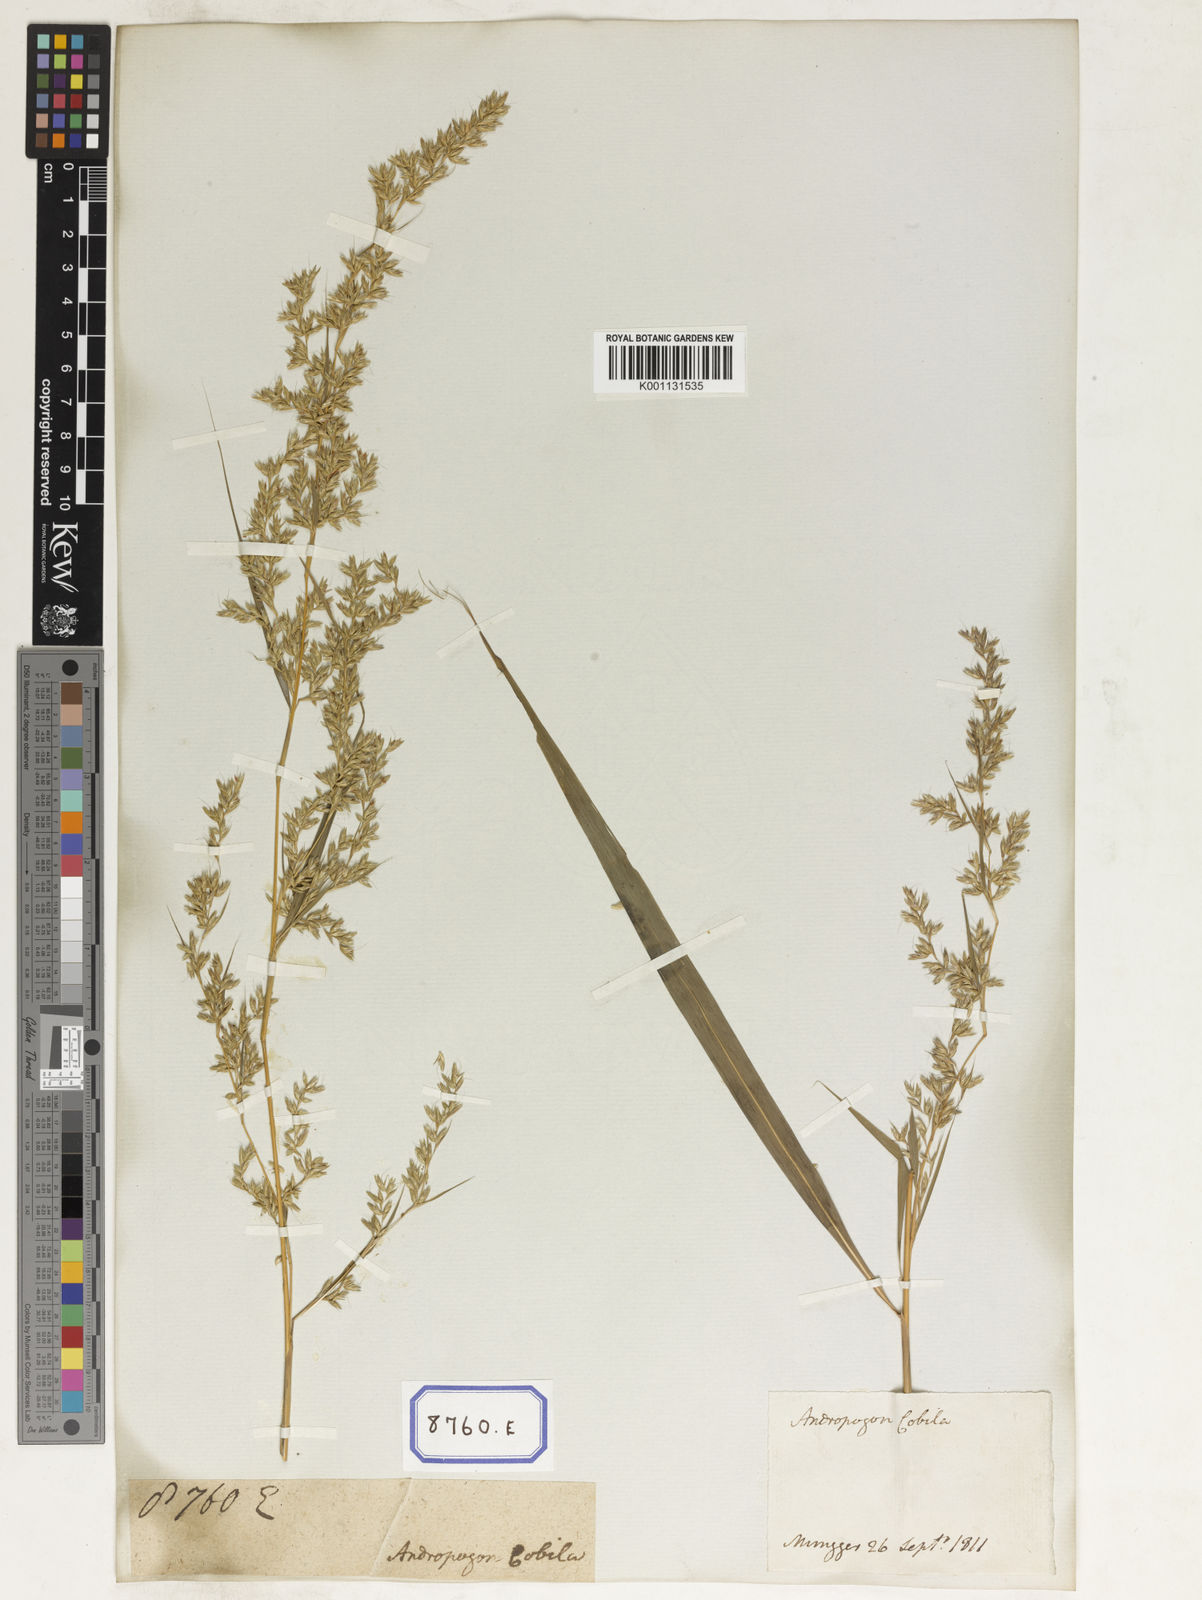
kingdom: Plantae
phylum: Tracheophyta
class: Liliopsida
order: Poales
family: Poaceae
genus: Apluda
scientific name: Apluda
